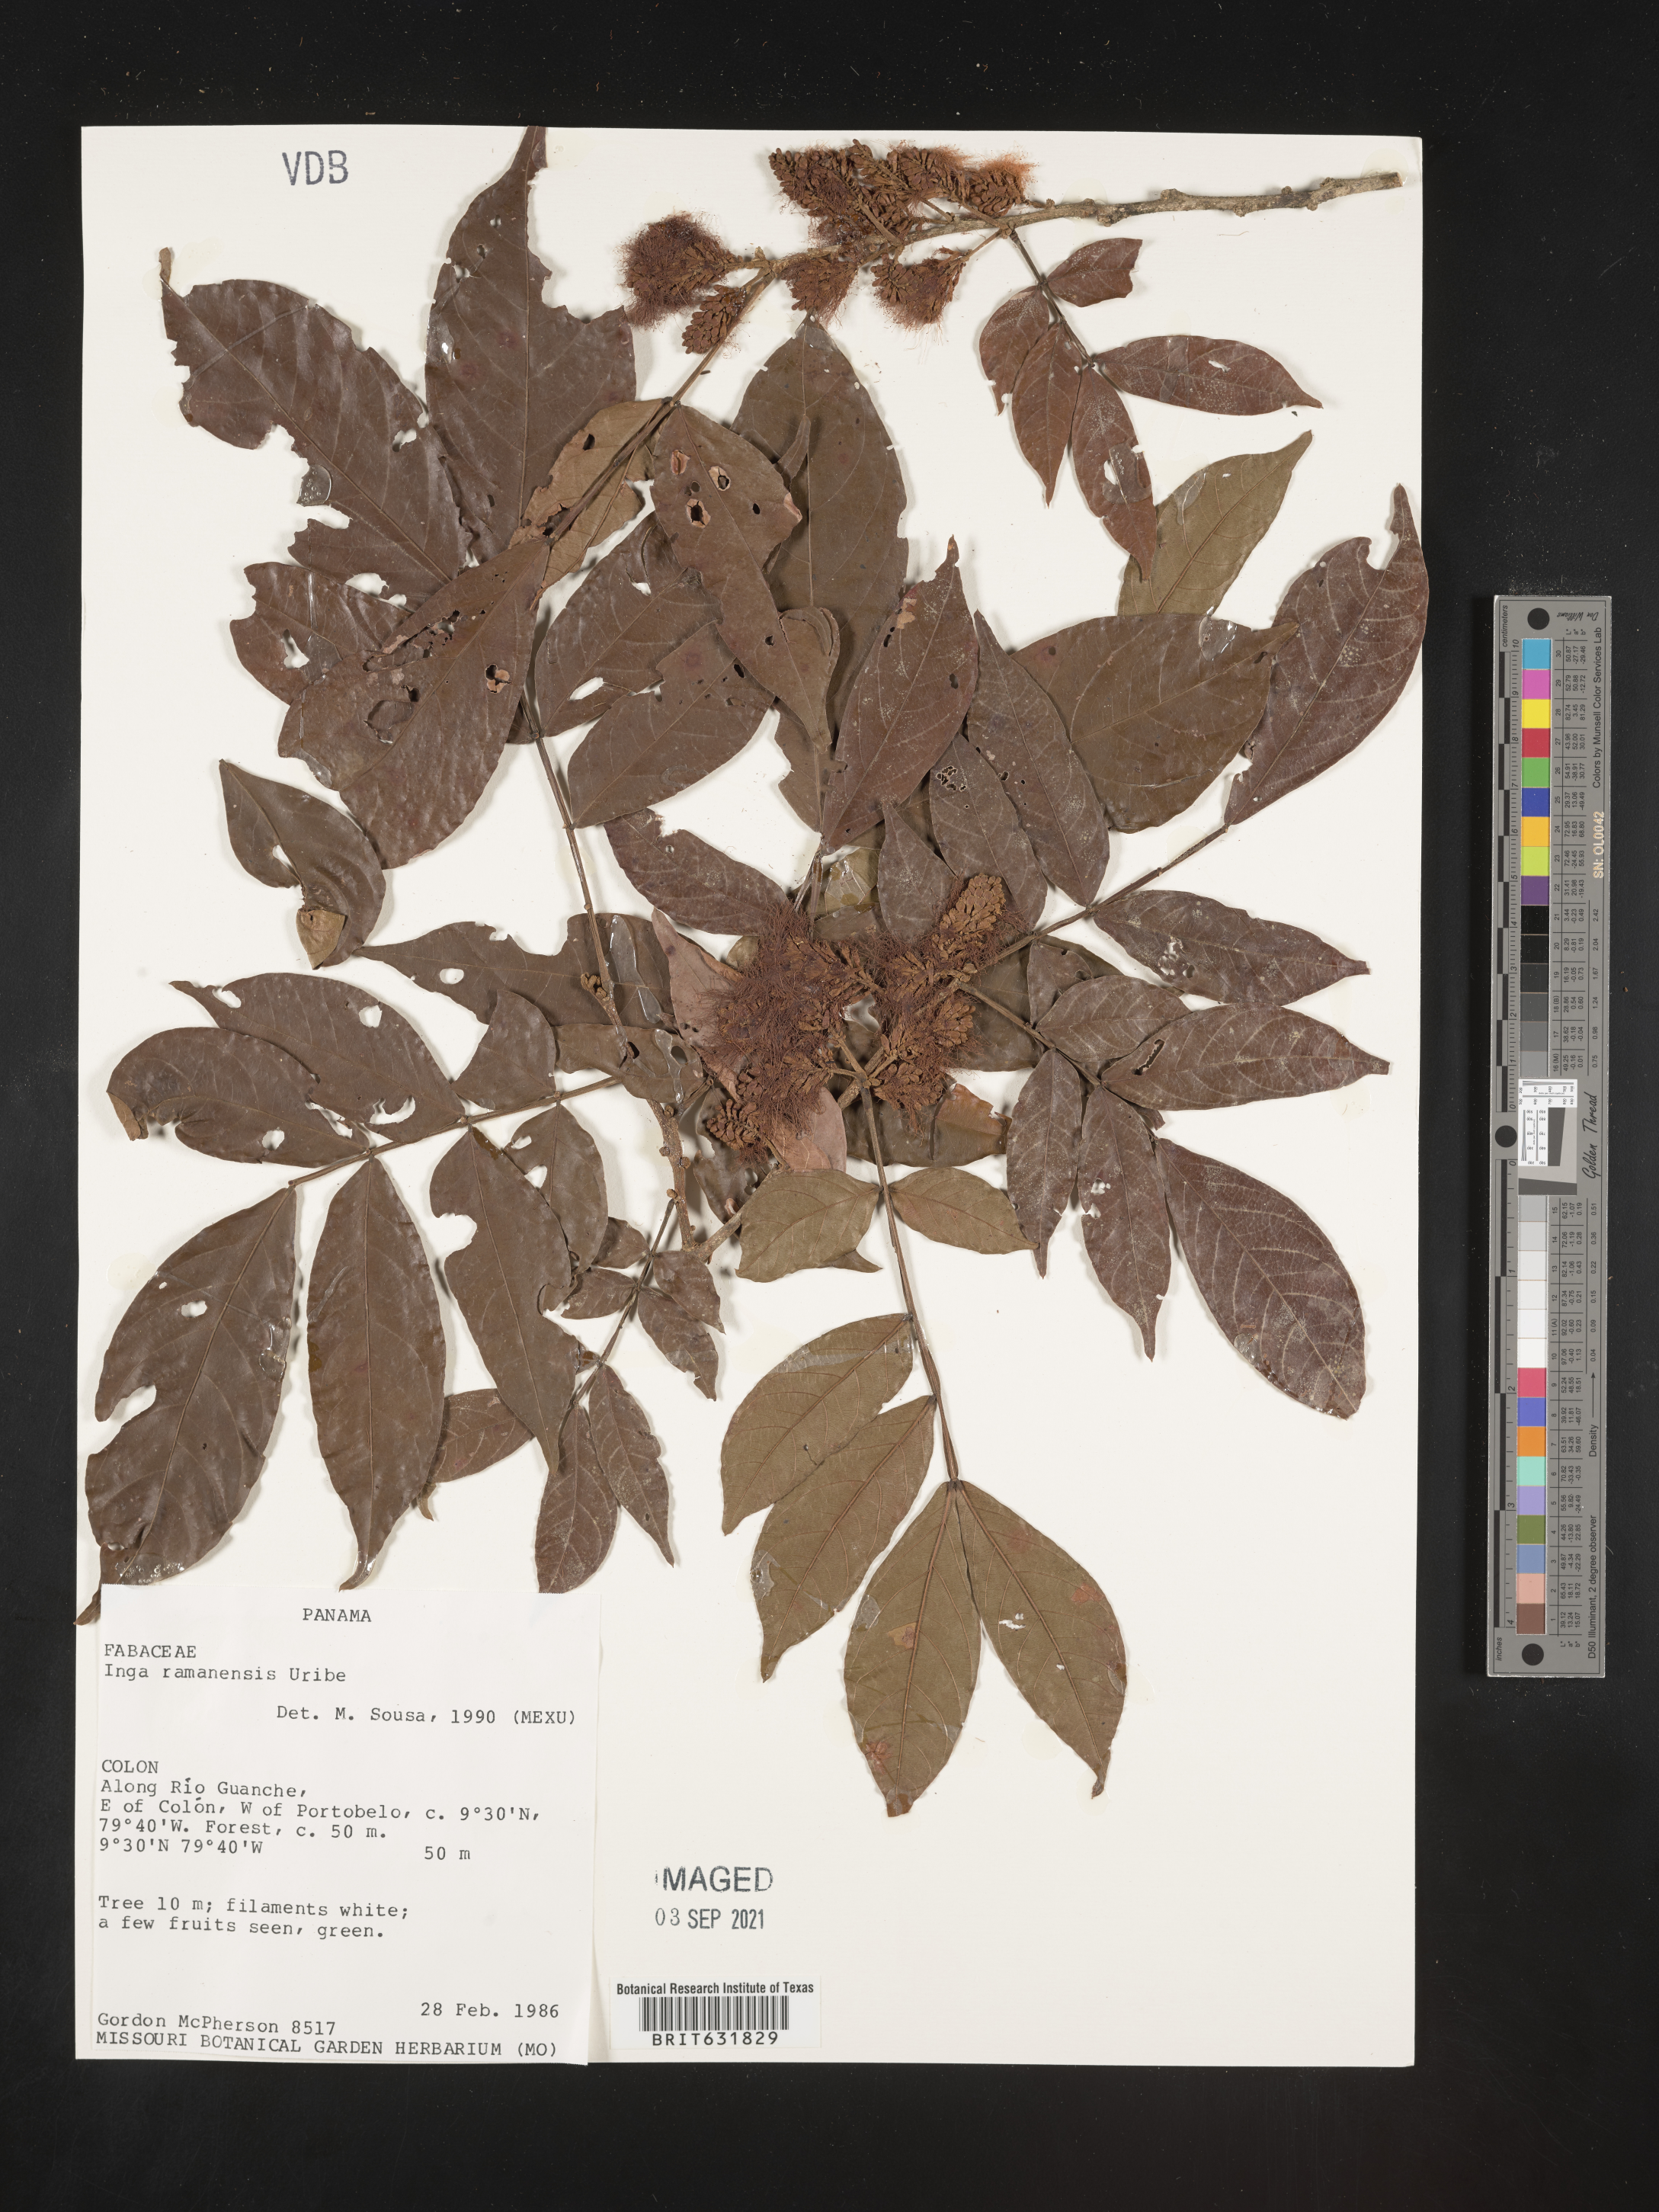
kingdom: Plantae
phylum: Tracheophyta
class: Magnoliopsida
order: Fabales
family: Fabaceae
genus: Inga
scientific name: Inga
